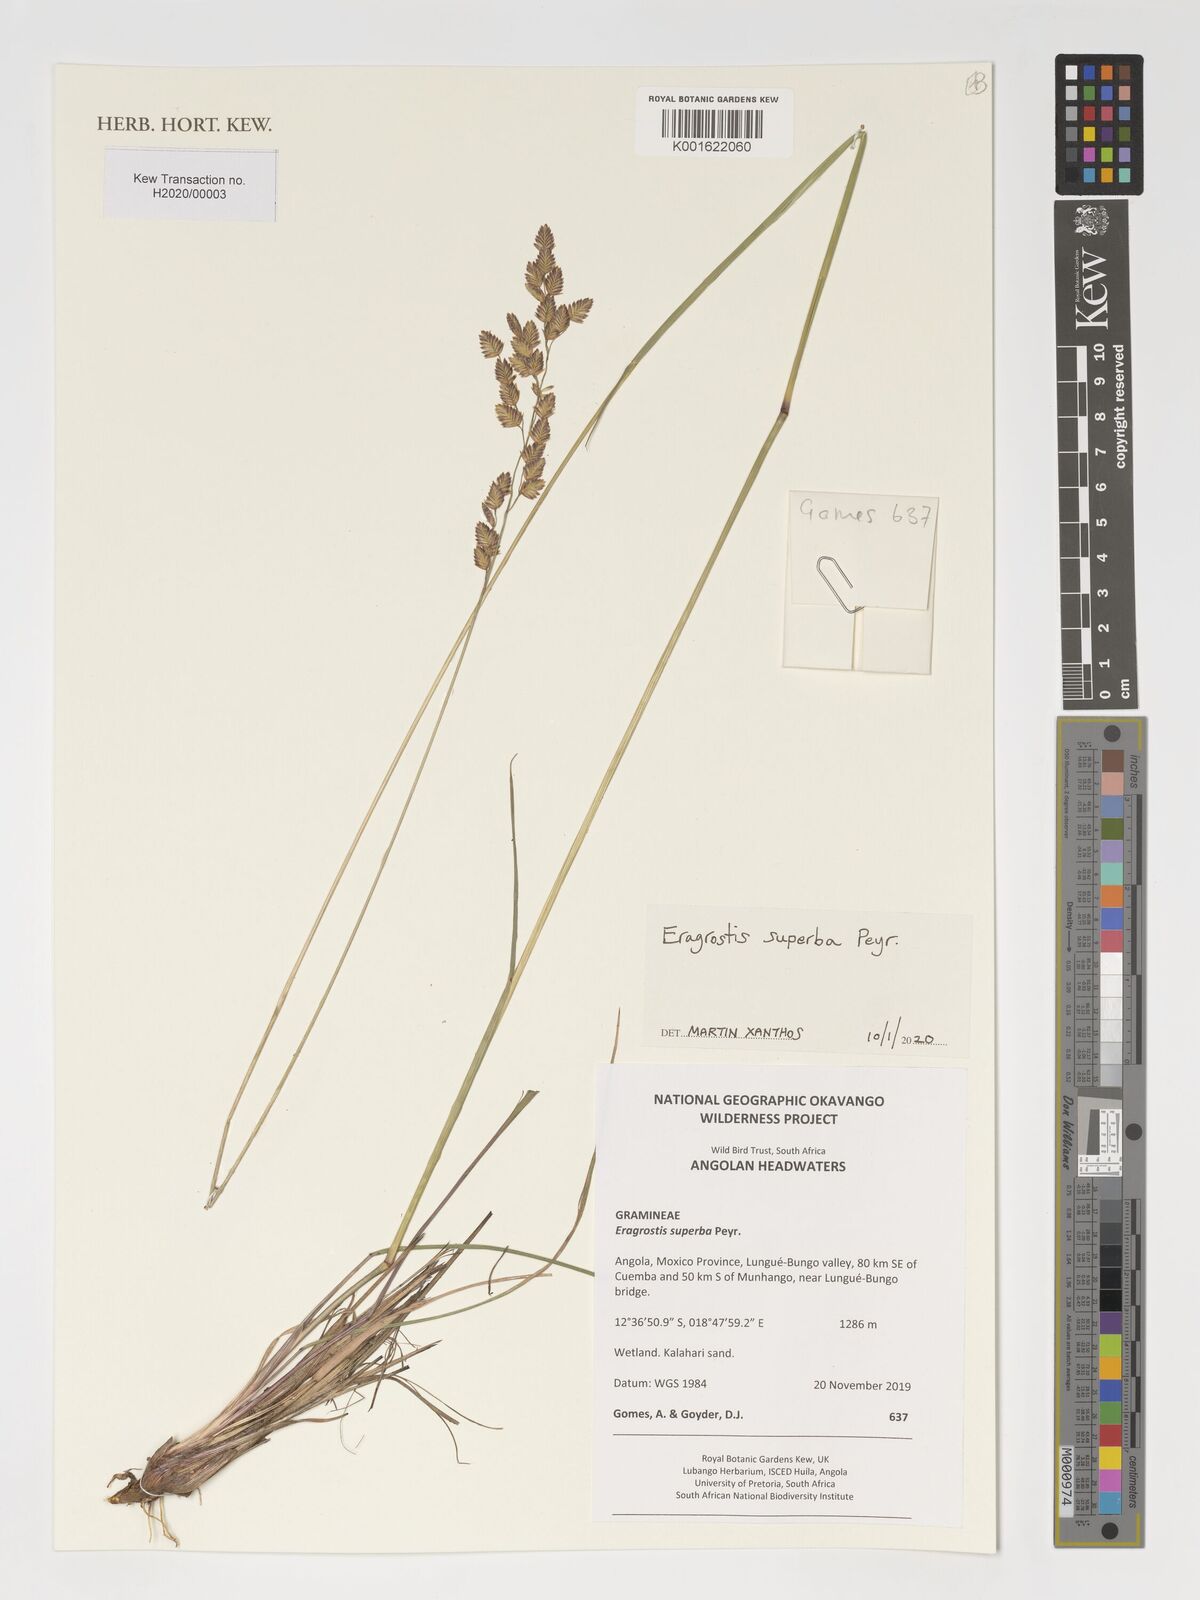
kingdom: Plantae
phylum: Tracheophyta
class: Liliopsida
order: Poales
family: Poaceae
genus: Eragrostis
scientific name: Eragrostis superba
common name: Wilman lovegrass
